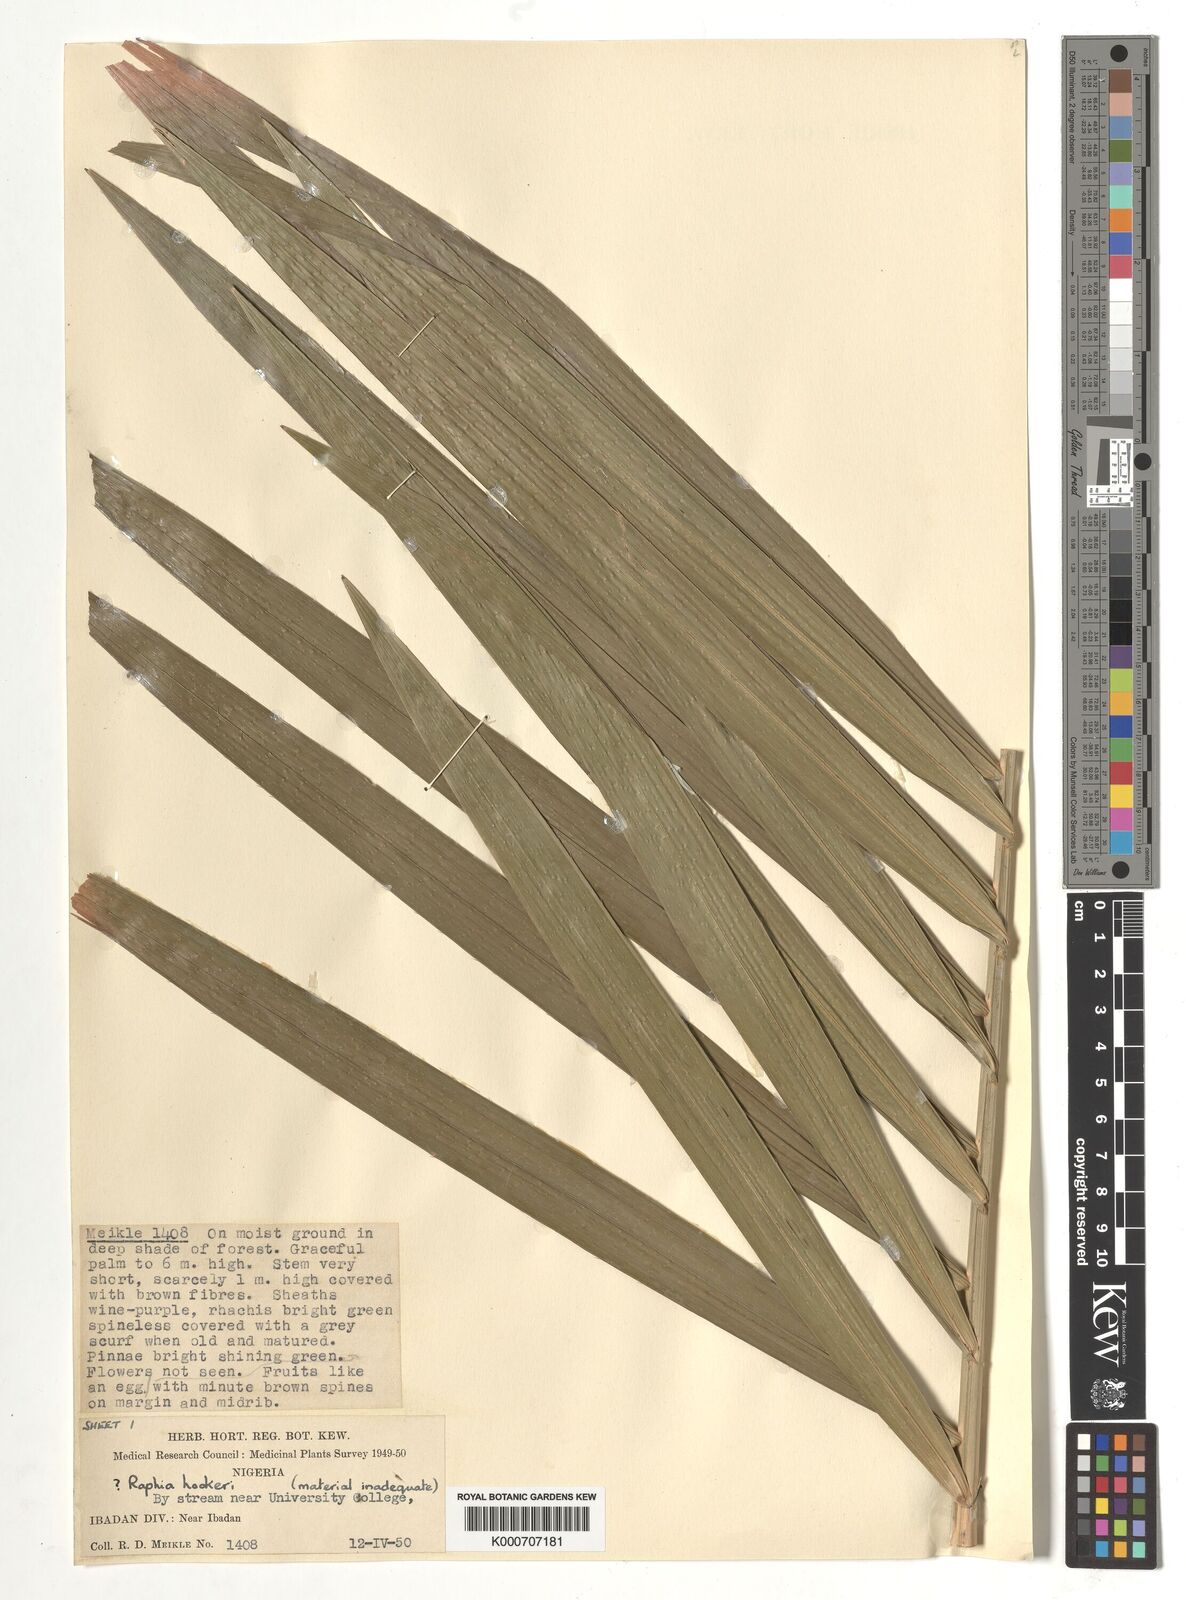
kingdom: Plantae
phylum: Tracheophyta
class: Liliopsida
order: Arecales
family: Arecaceae
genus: Raphia
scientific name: Raphia
